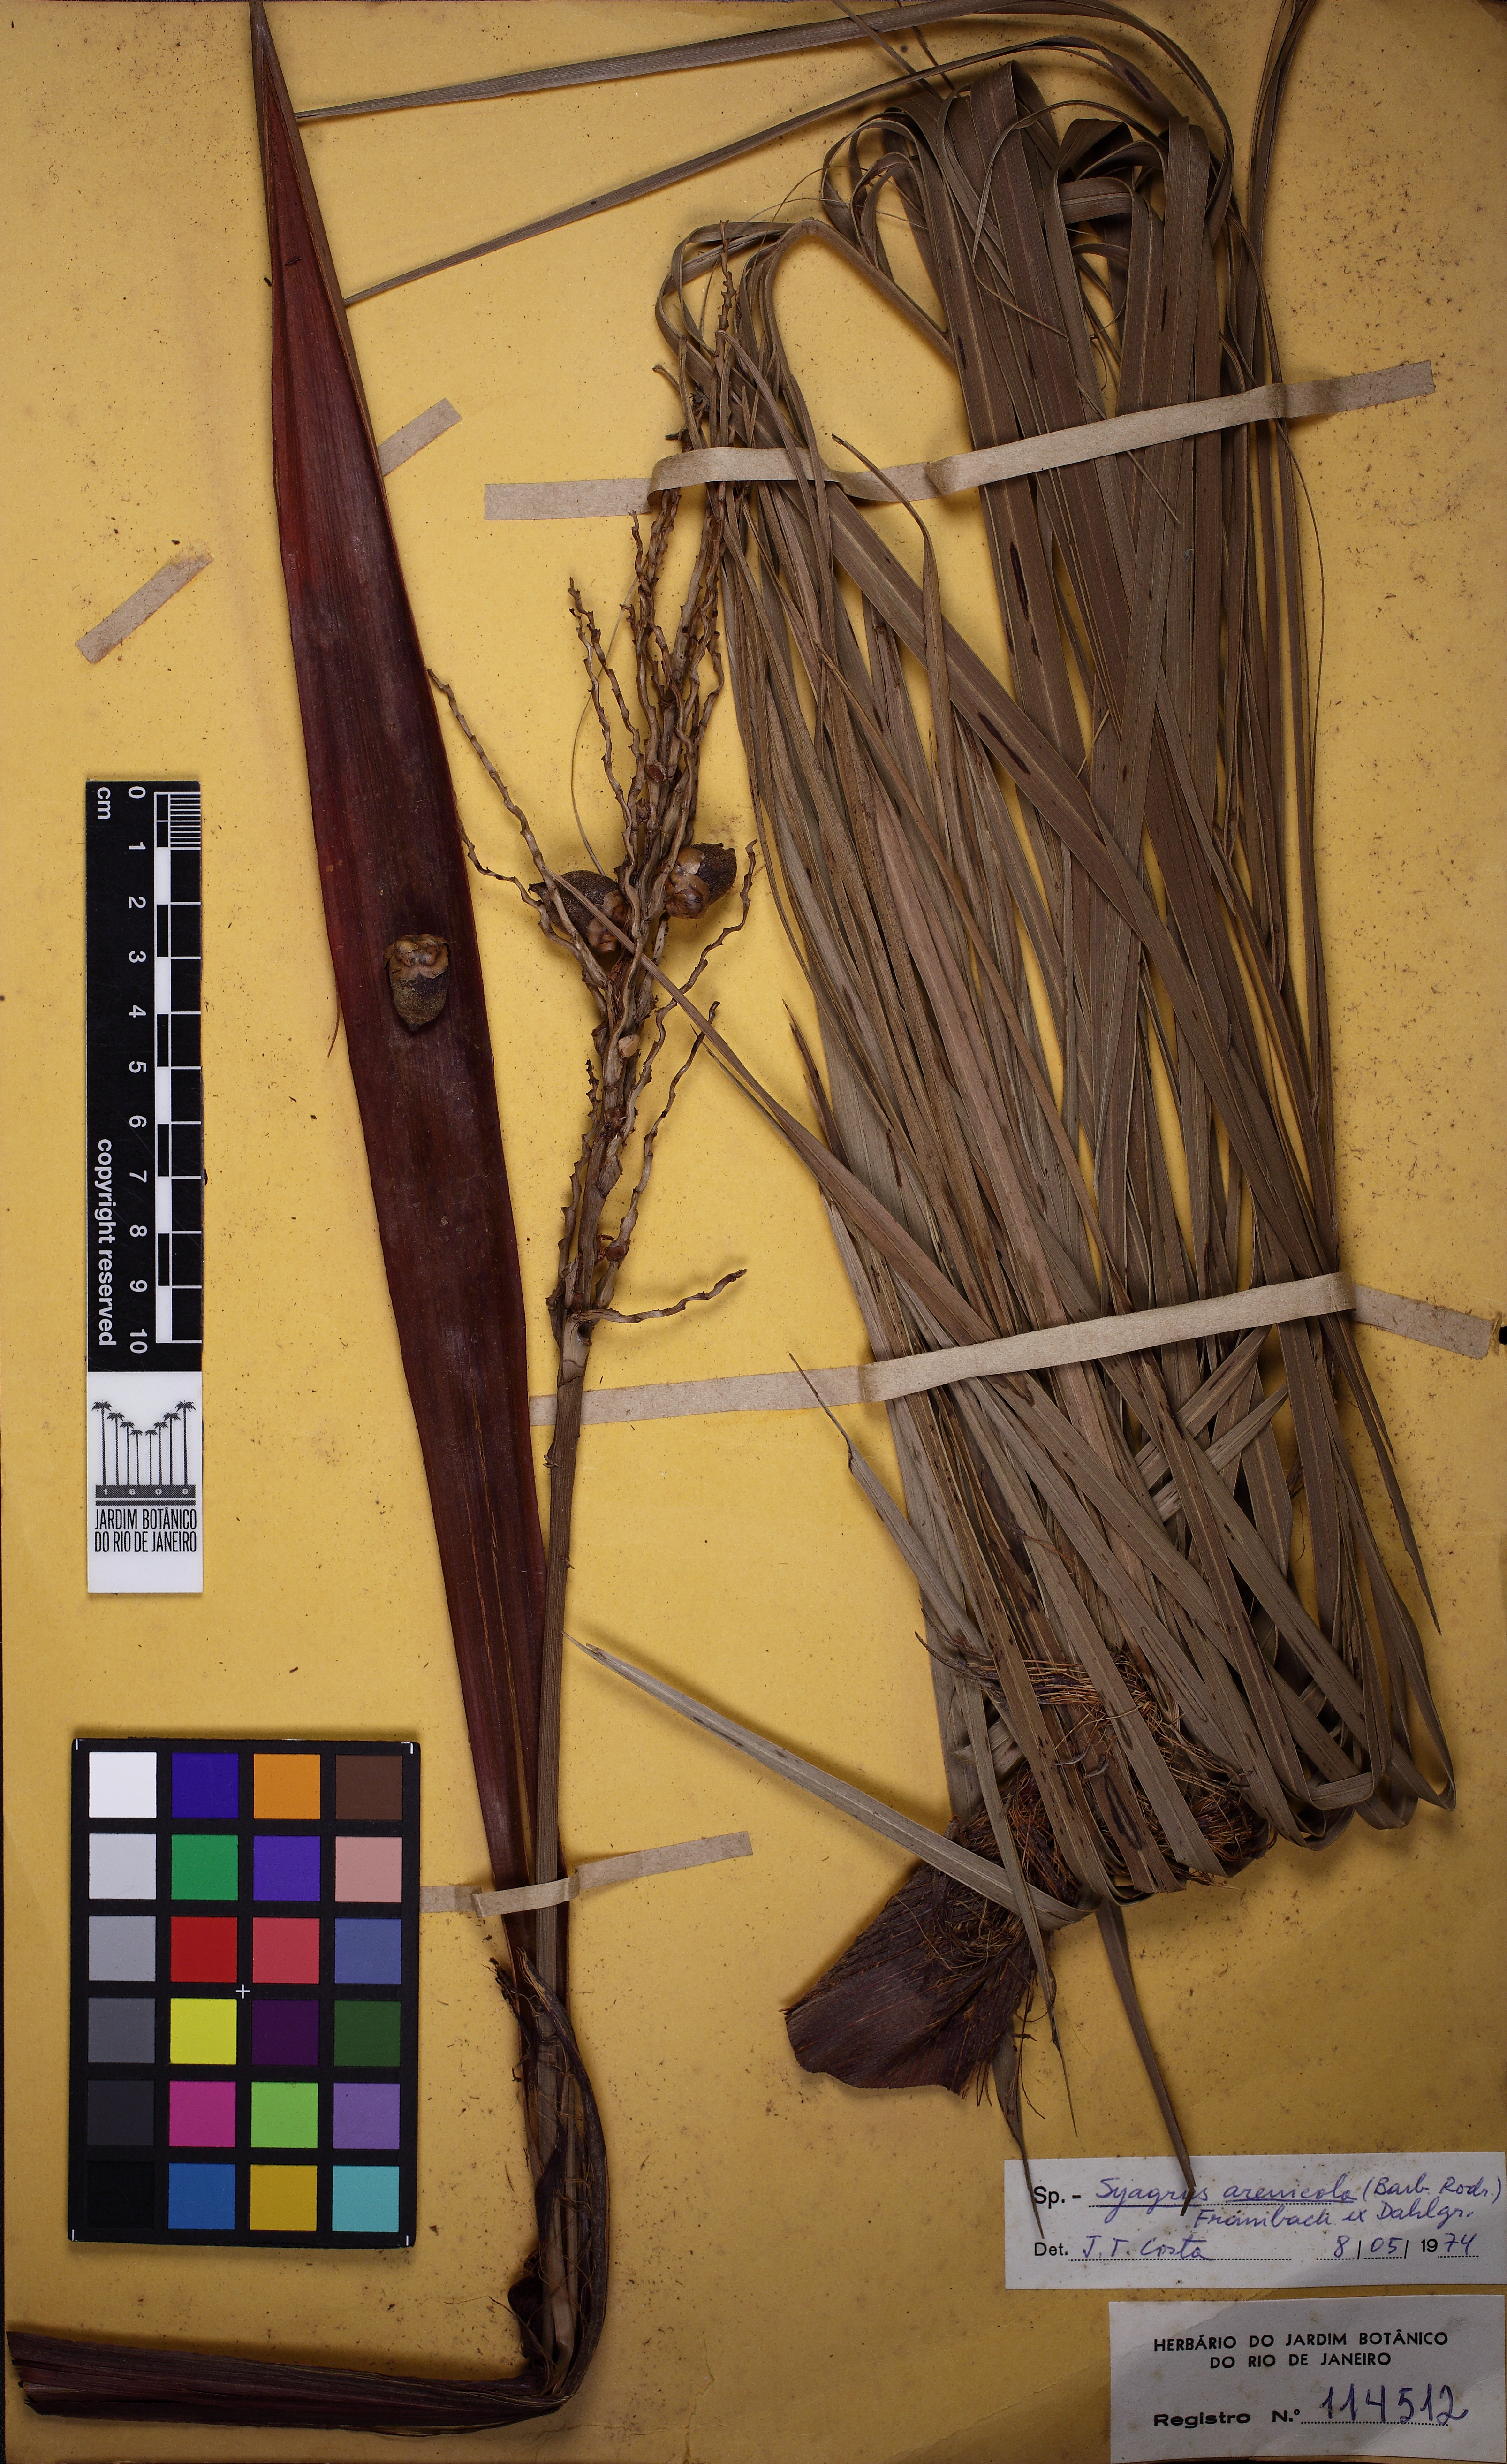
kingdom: Plantae
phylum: Tracheophyta
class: Liliopsida
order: Arecales
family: Arecaceae
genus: Butia
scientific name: Butia archeri
